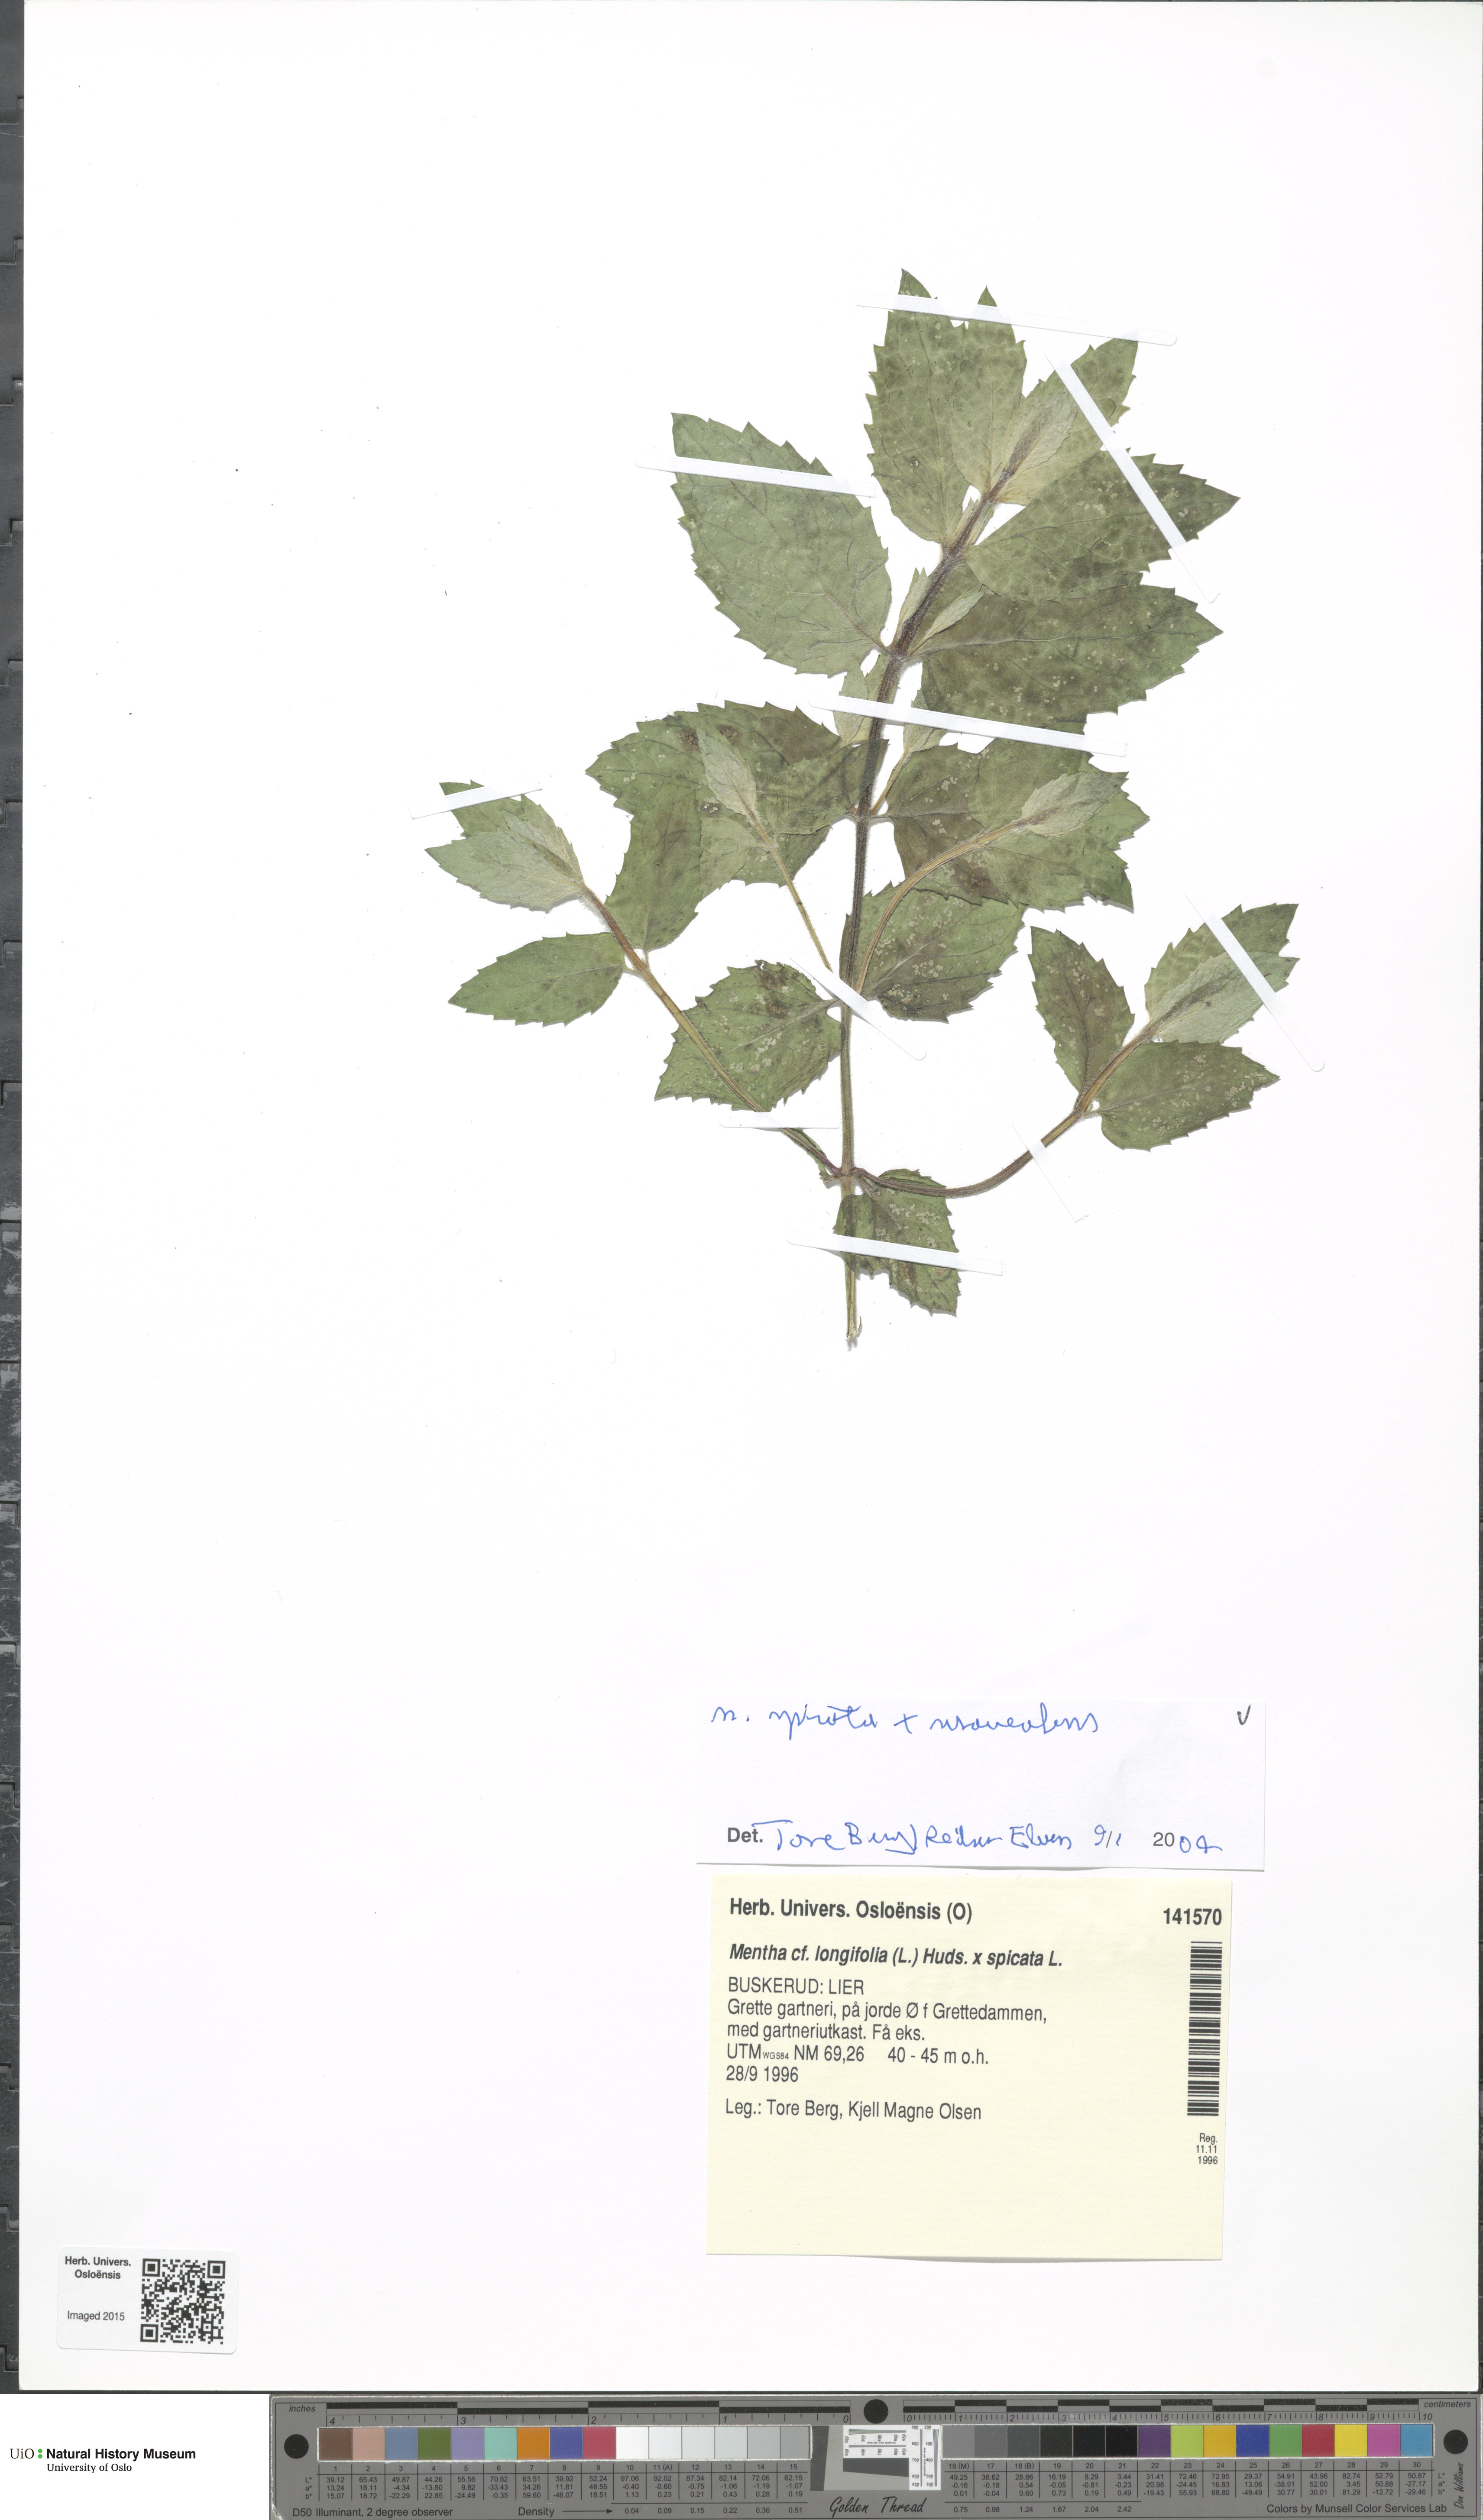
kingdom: Plantae
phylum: Tracheophyta
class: Magnoliopsida
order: Lamiales
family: Lamiaceae
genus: Mentha
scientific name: Mentha
